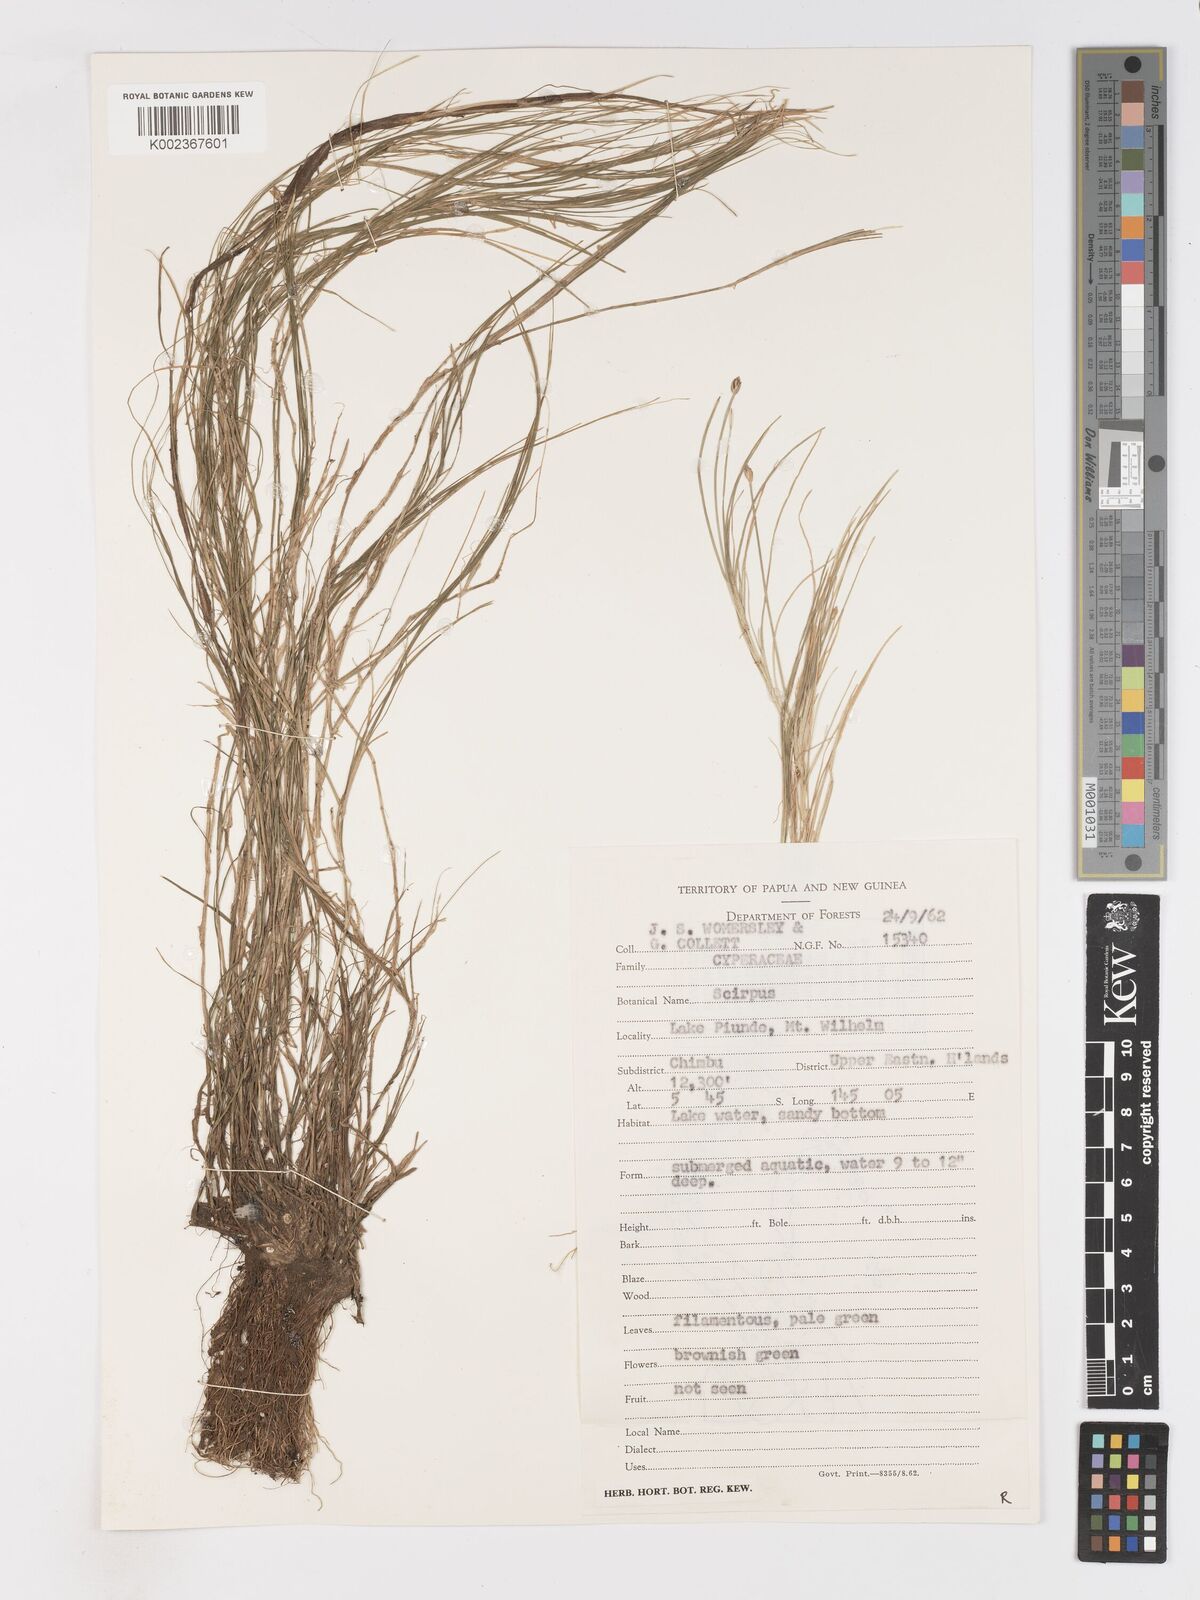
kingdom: Plantae
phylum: Tracheophyta
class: Liliopsida
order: Poales
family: Cyperaceae
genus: Isolepis
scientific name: Isolepis crassiuscula
